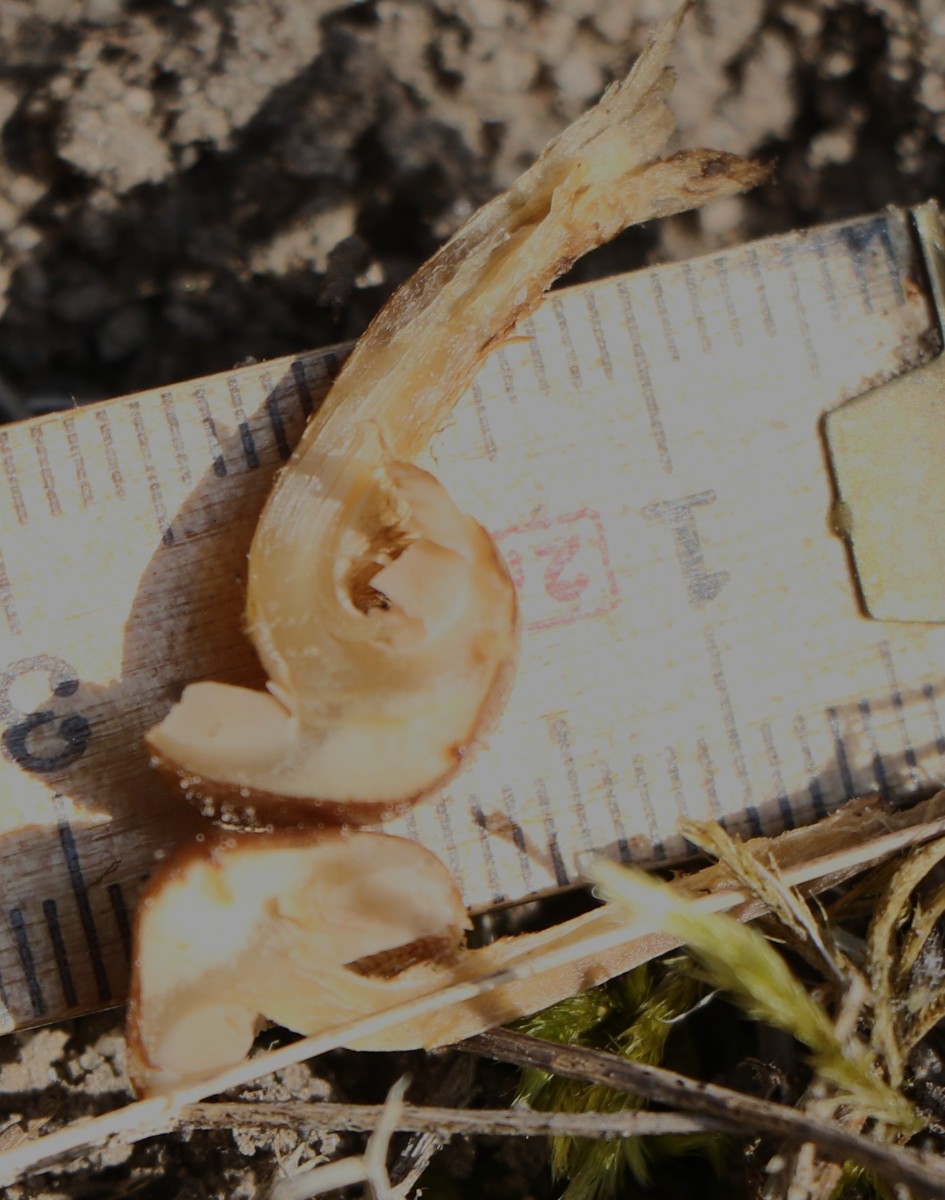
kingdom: Fungi
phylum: Basidiomycota
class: Agaricomycetes
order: Agaricales
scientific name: Agaricales
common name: champignonordenen
